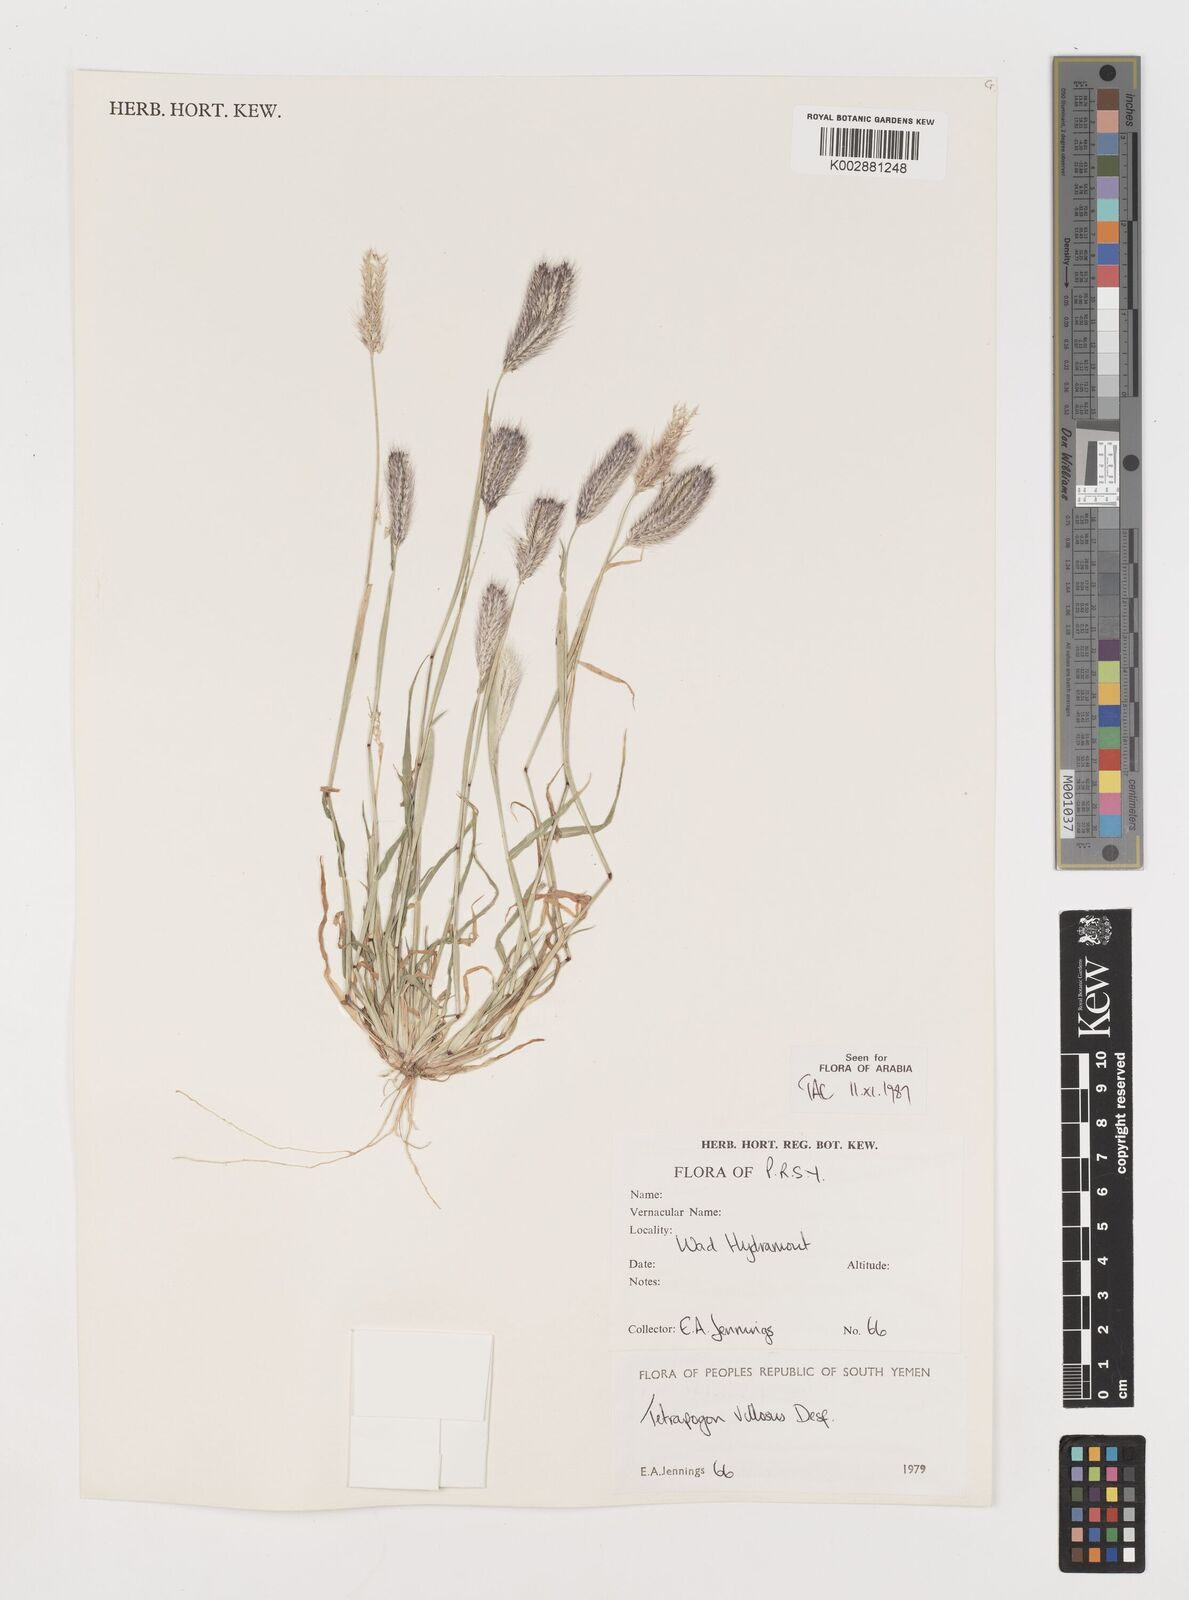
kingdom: Plantae
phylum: Tracheophyta
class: Liliopsida
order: Poales
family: Poaceae
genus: Tetrapogon
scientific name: Tetrapogon villosus
